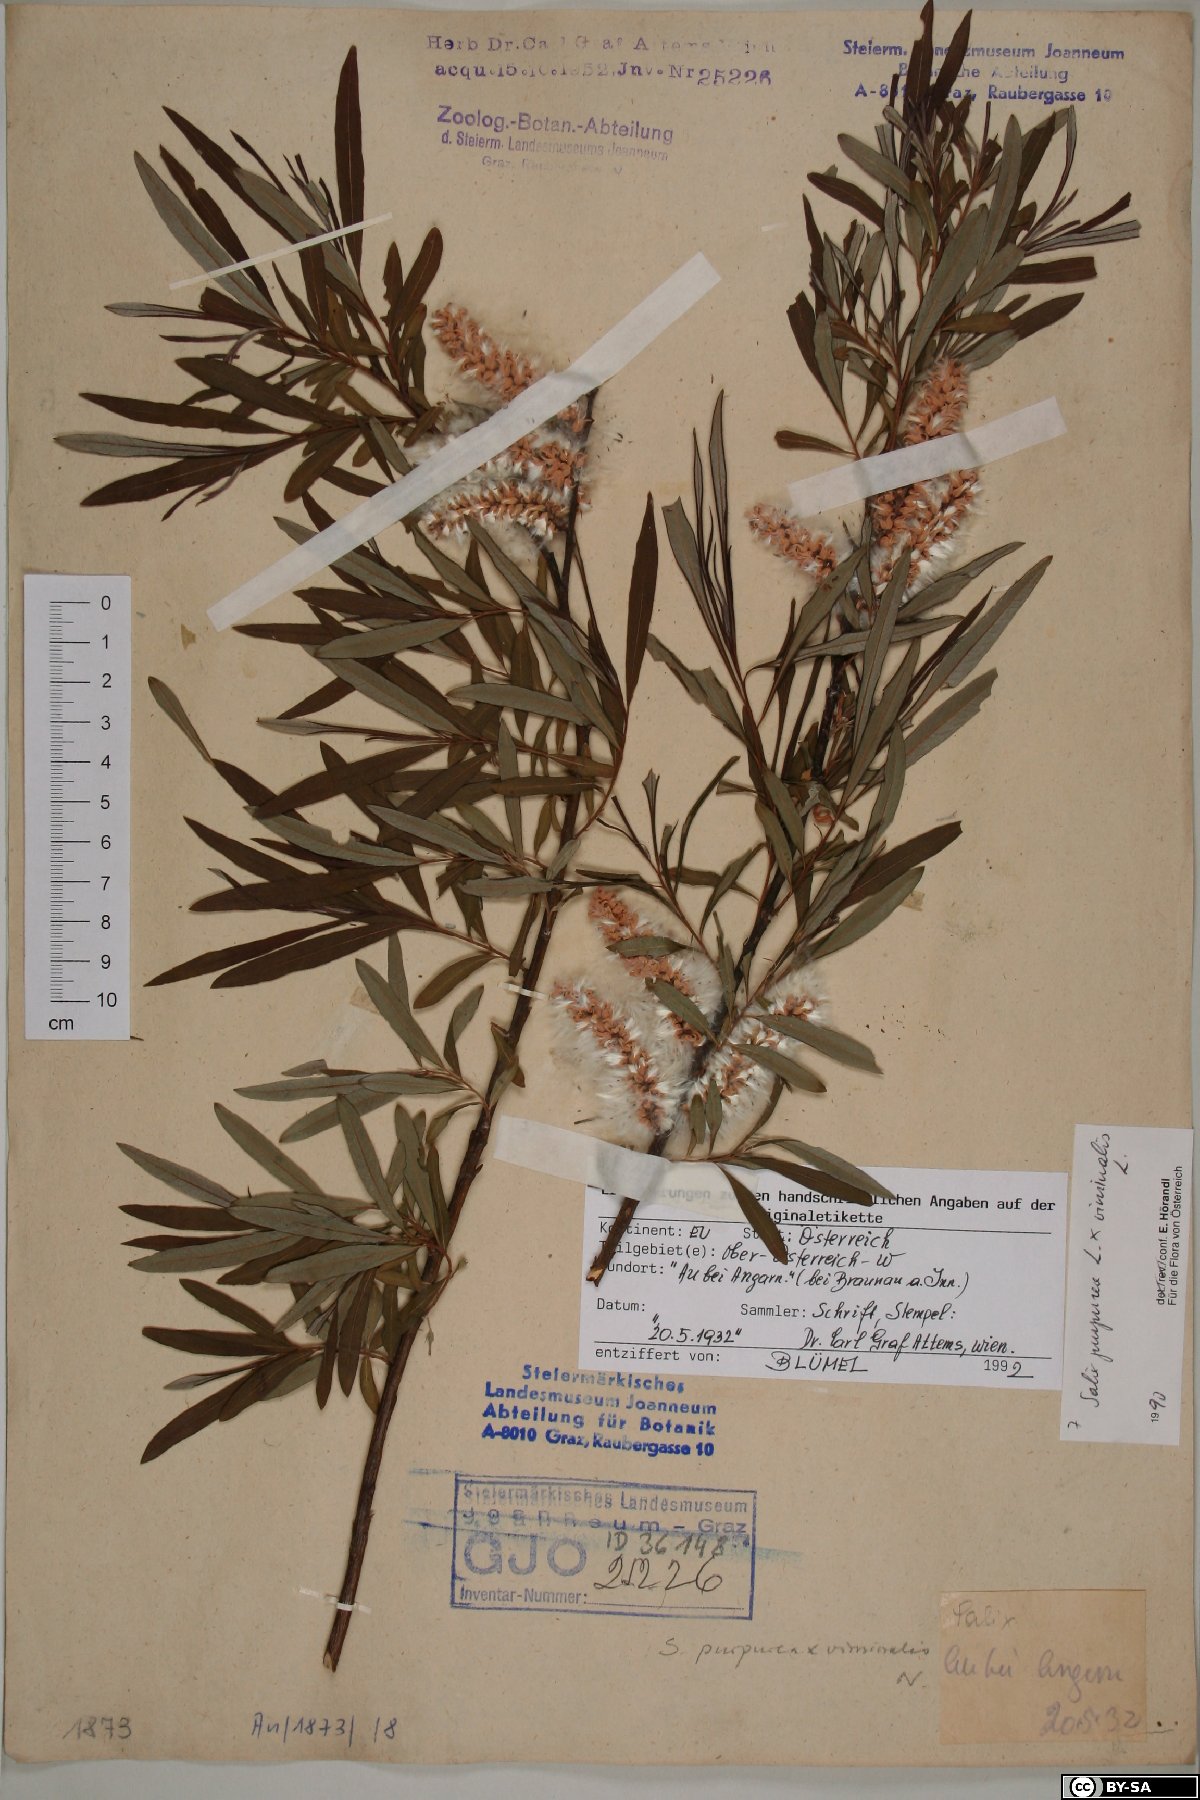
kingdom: Plantae
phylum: Tracheophyta
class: Magnoliopsida
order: Malpighiales
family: Salicaceae
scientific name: Salicaceae
